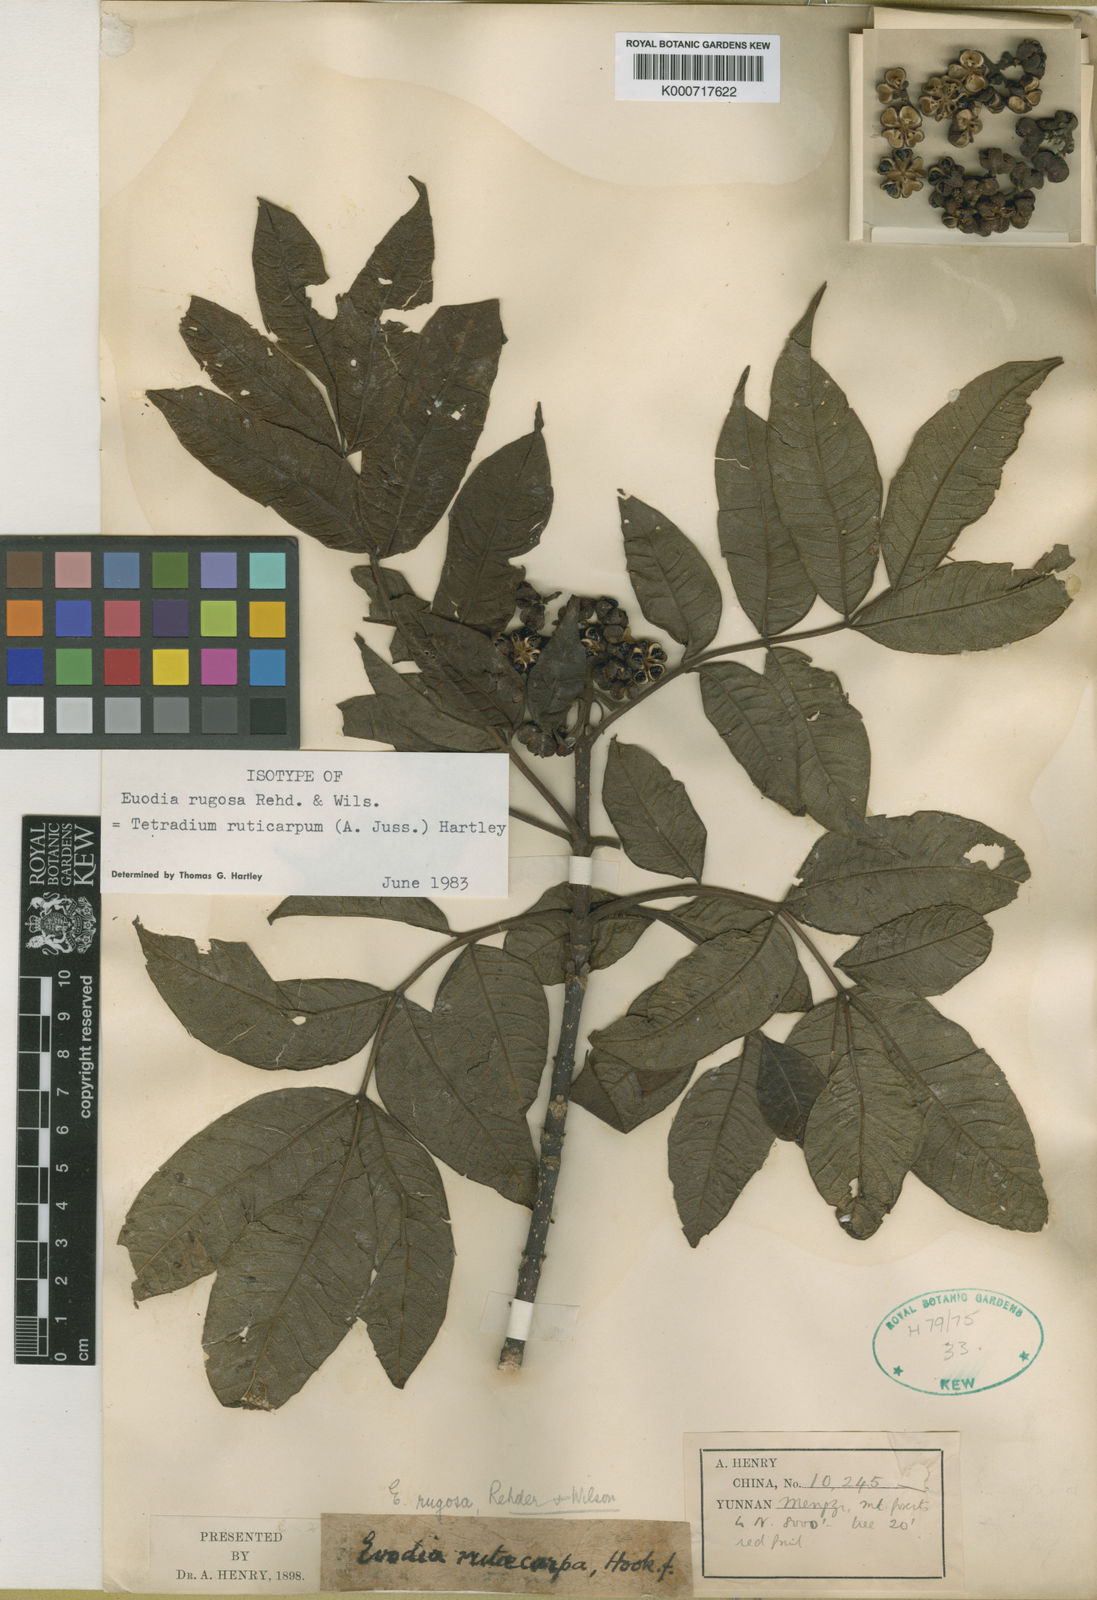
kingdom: Plantae
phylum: Tracheophyta
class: Magnoliopsida
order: Sapindales
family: Rutaceae
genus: Tetradium
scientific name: Tetradium ruticarpum
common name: Evodia
